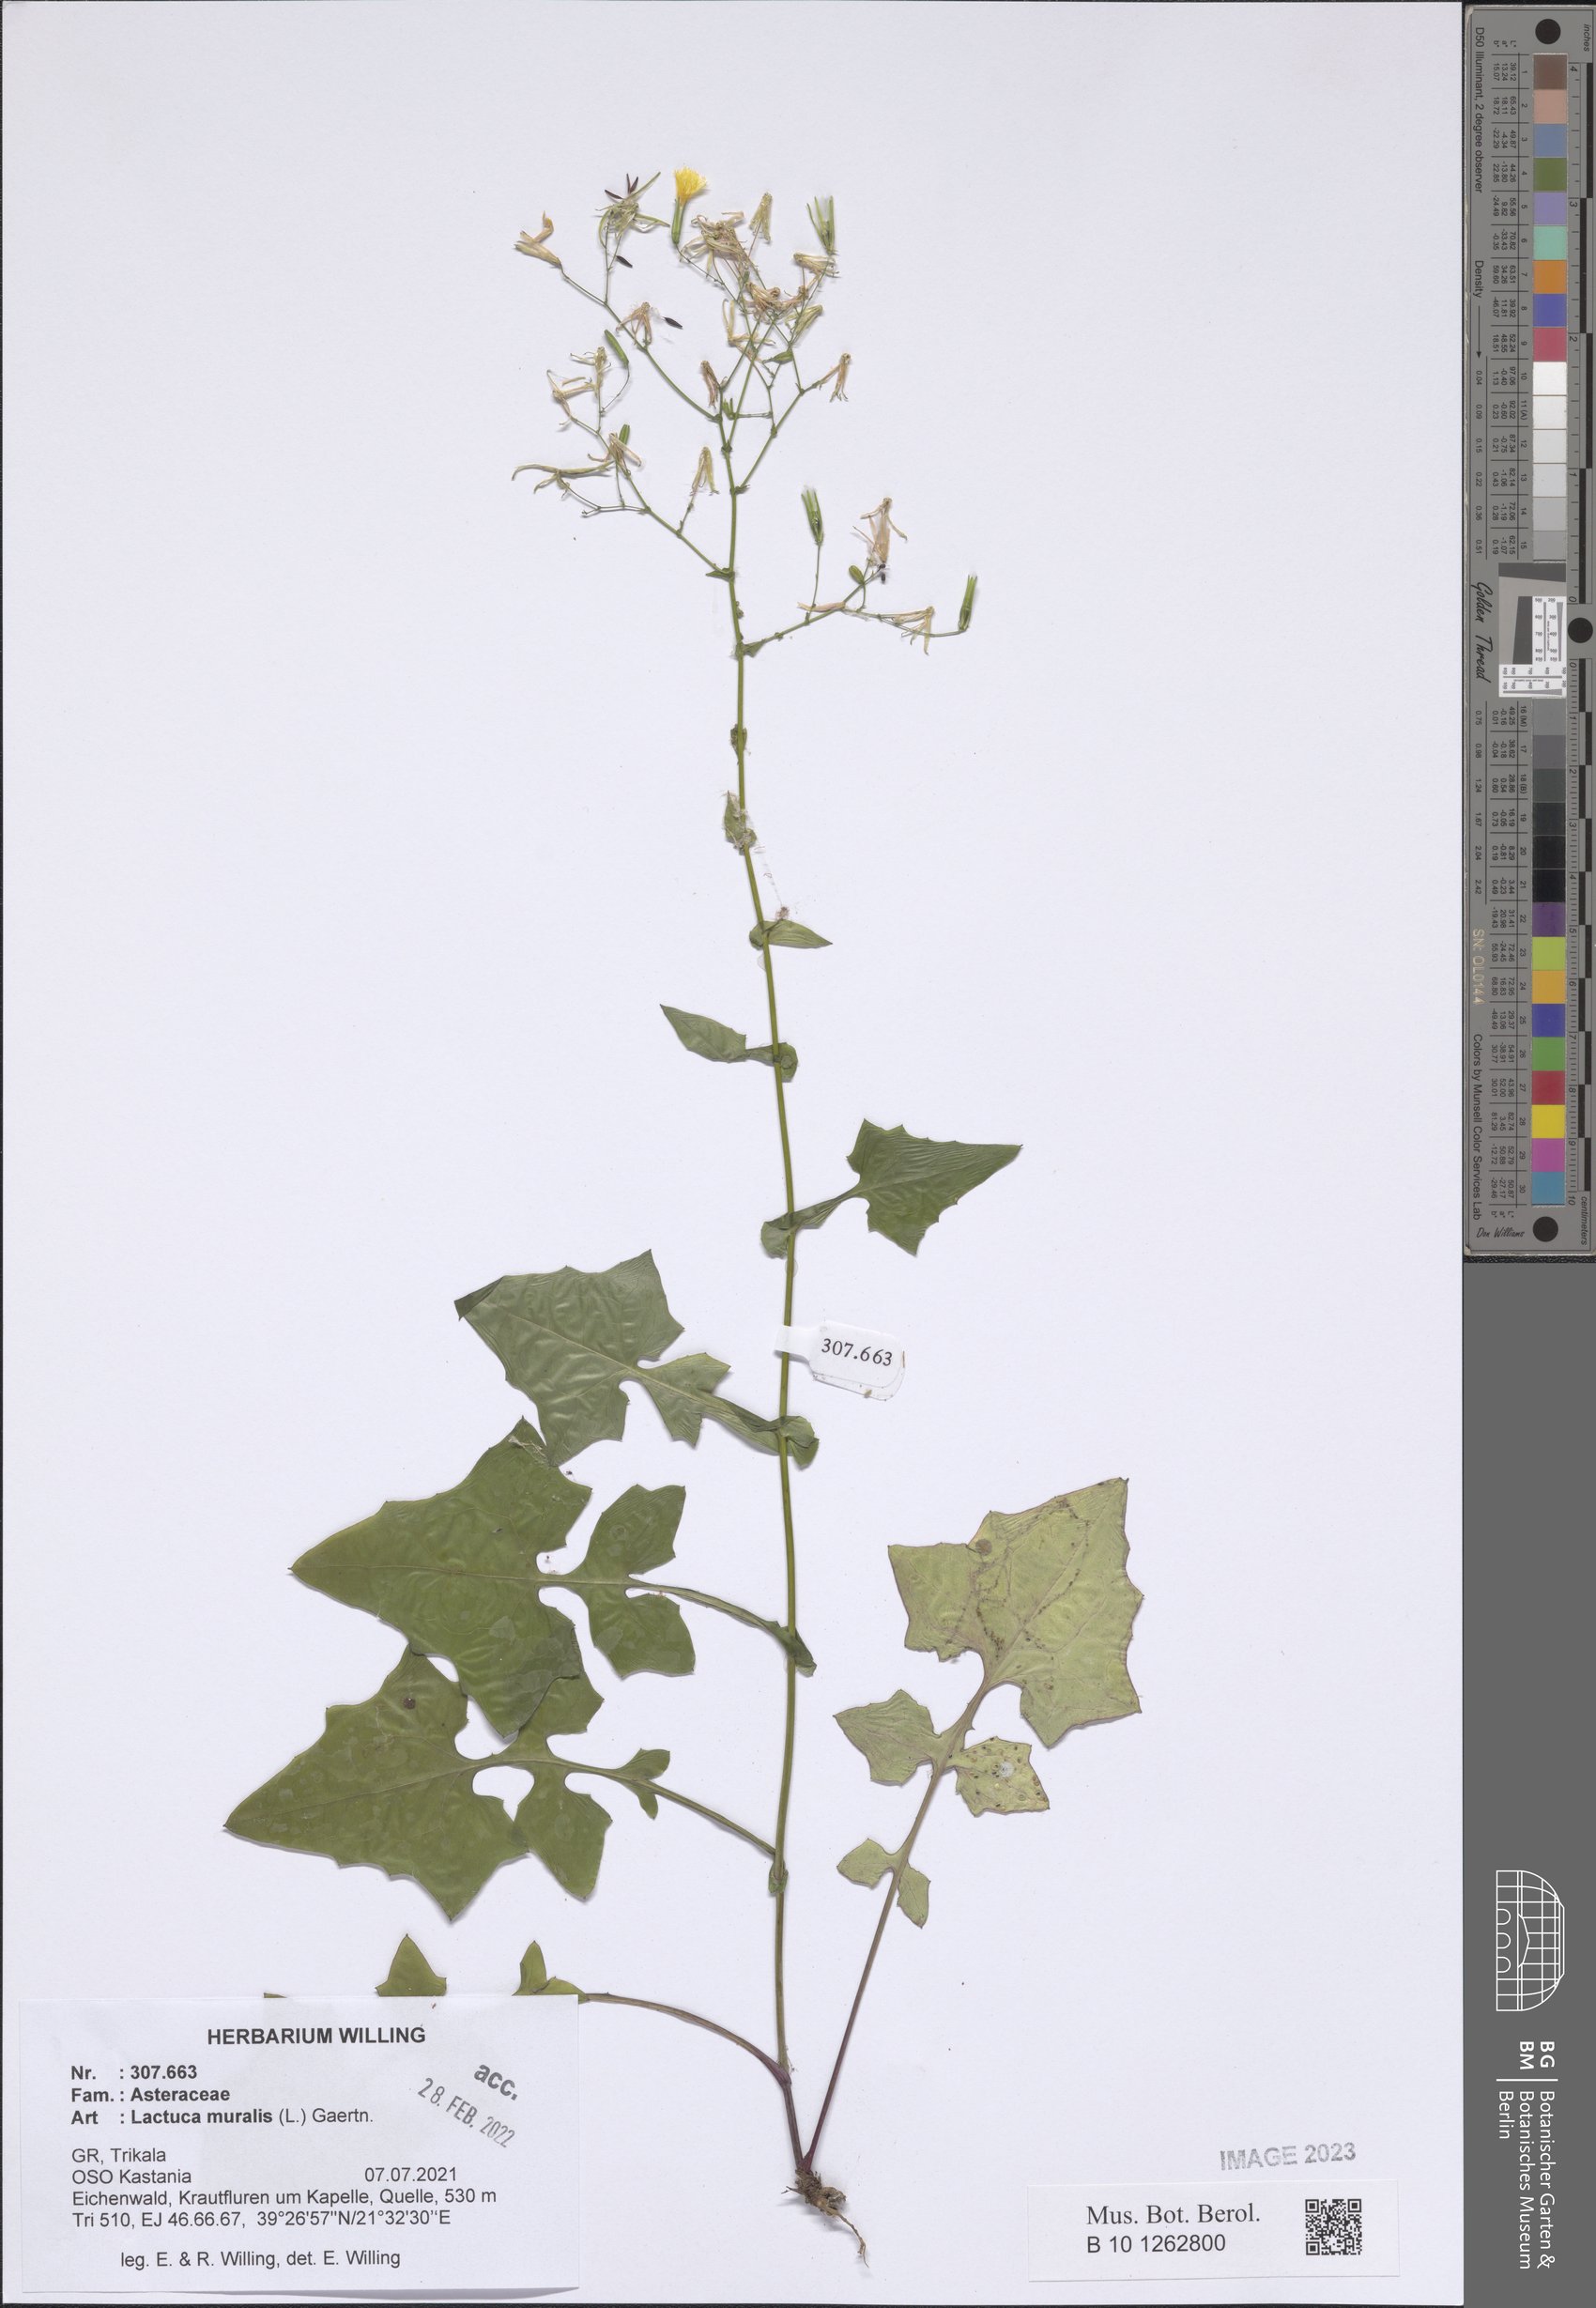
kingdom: Plantae
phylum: Tracheophyta
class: Magnoliopsida
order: Asterales
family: Asteraceae
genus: Mycelis
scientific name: Mycelis muralis
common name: Wall lettuce
